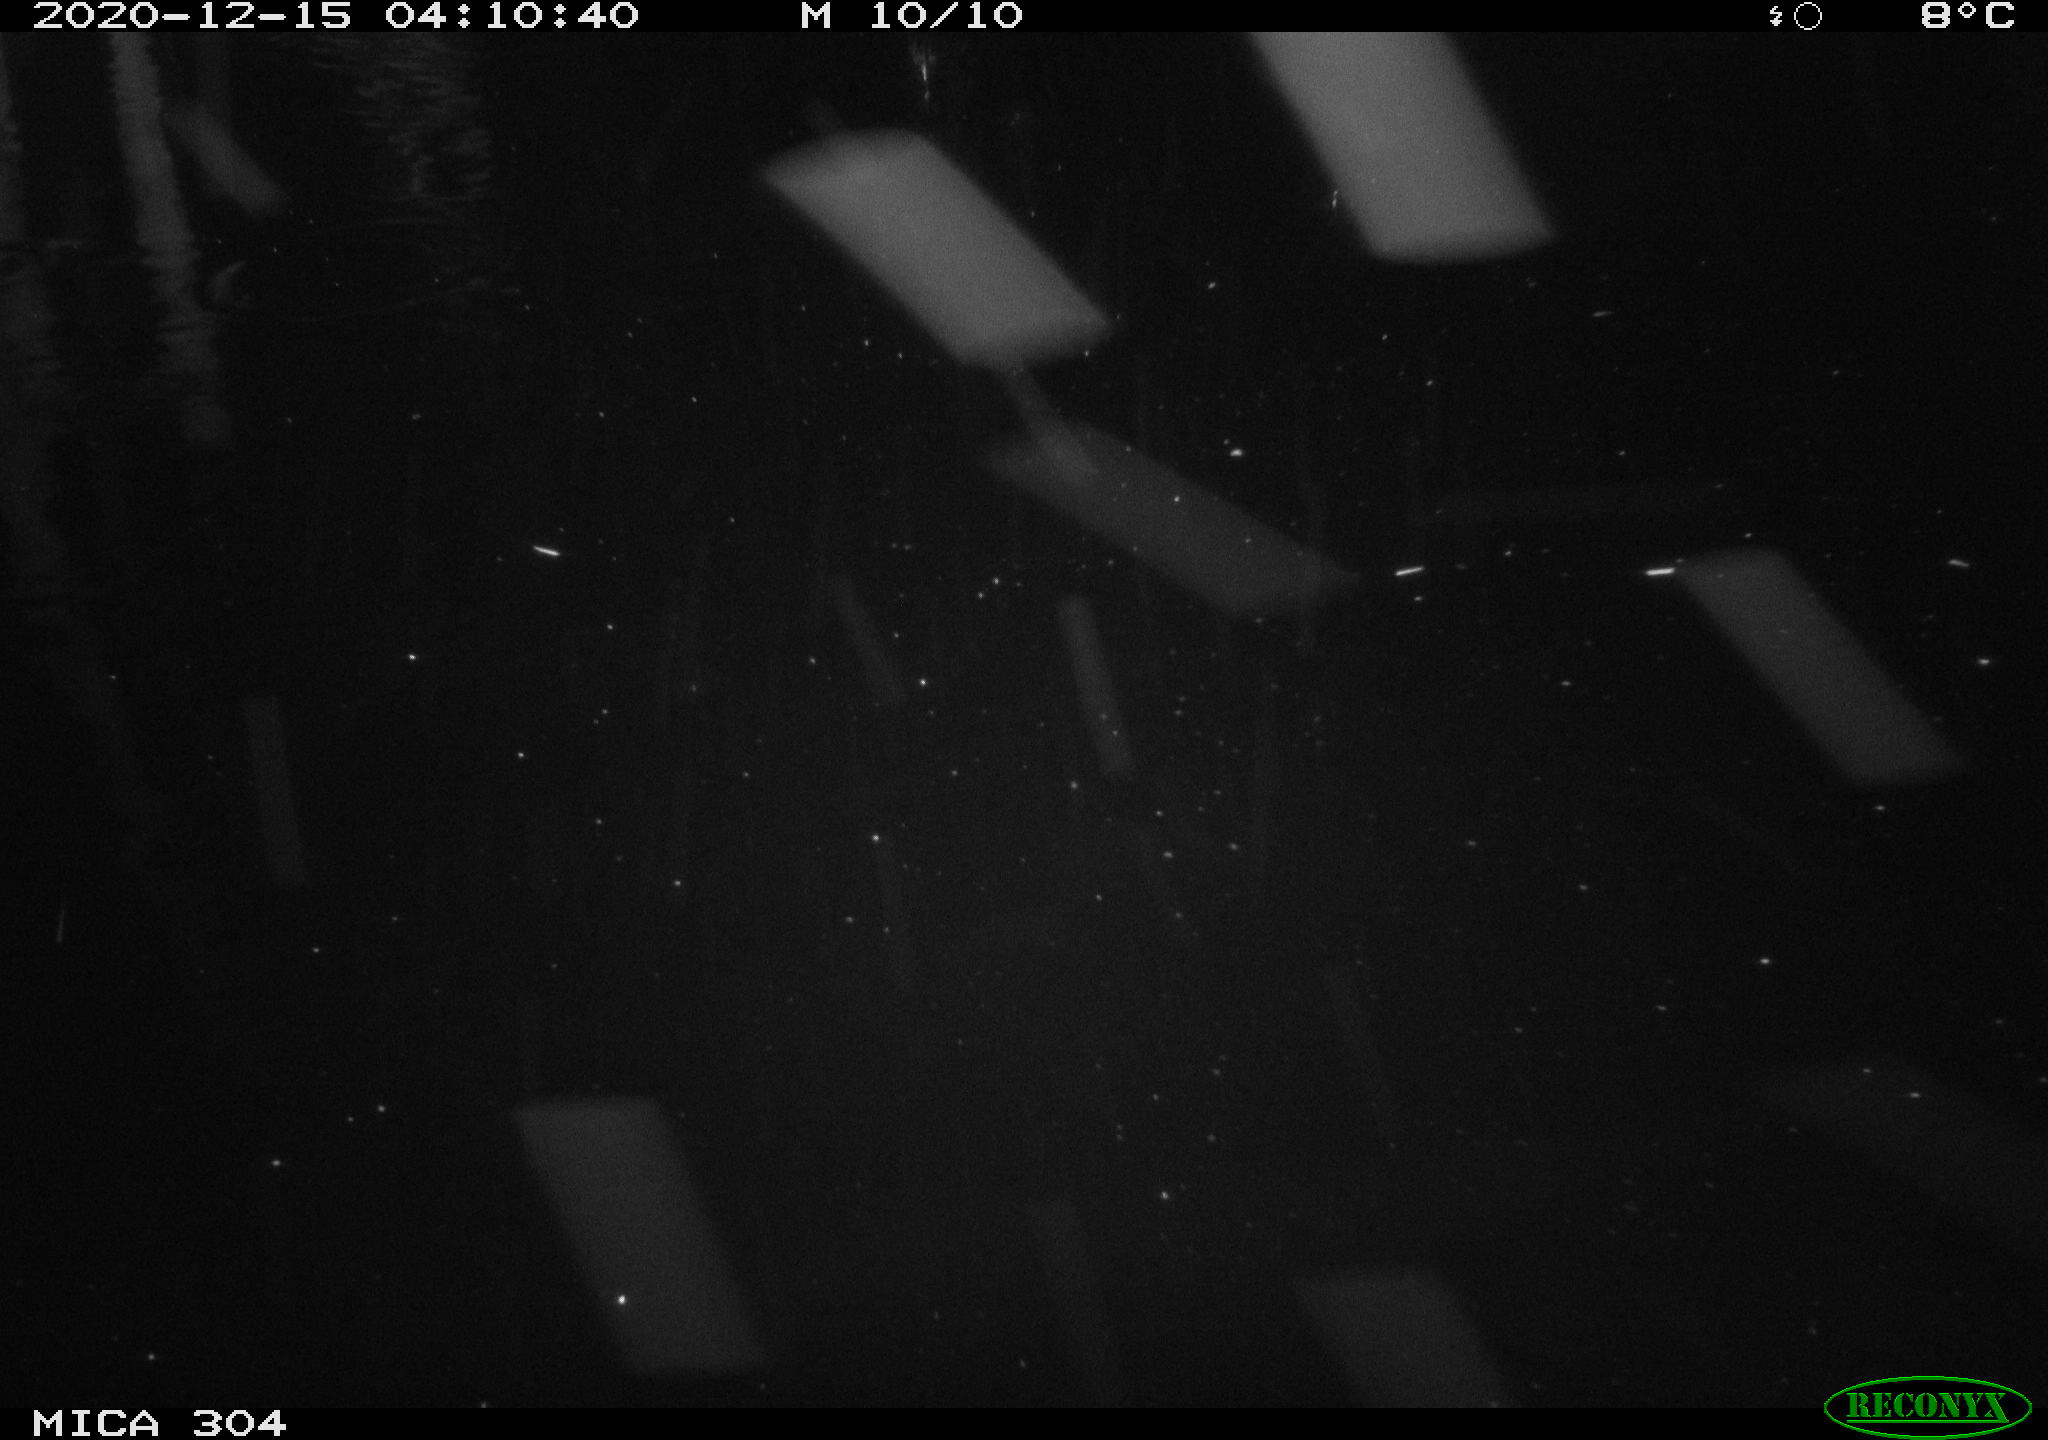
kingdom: Animalia
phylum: Chordata
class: Aves
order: Gruiformes
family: Rallidae
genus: Fulica
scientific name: Fulica atra
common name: Eurasian coot
